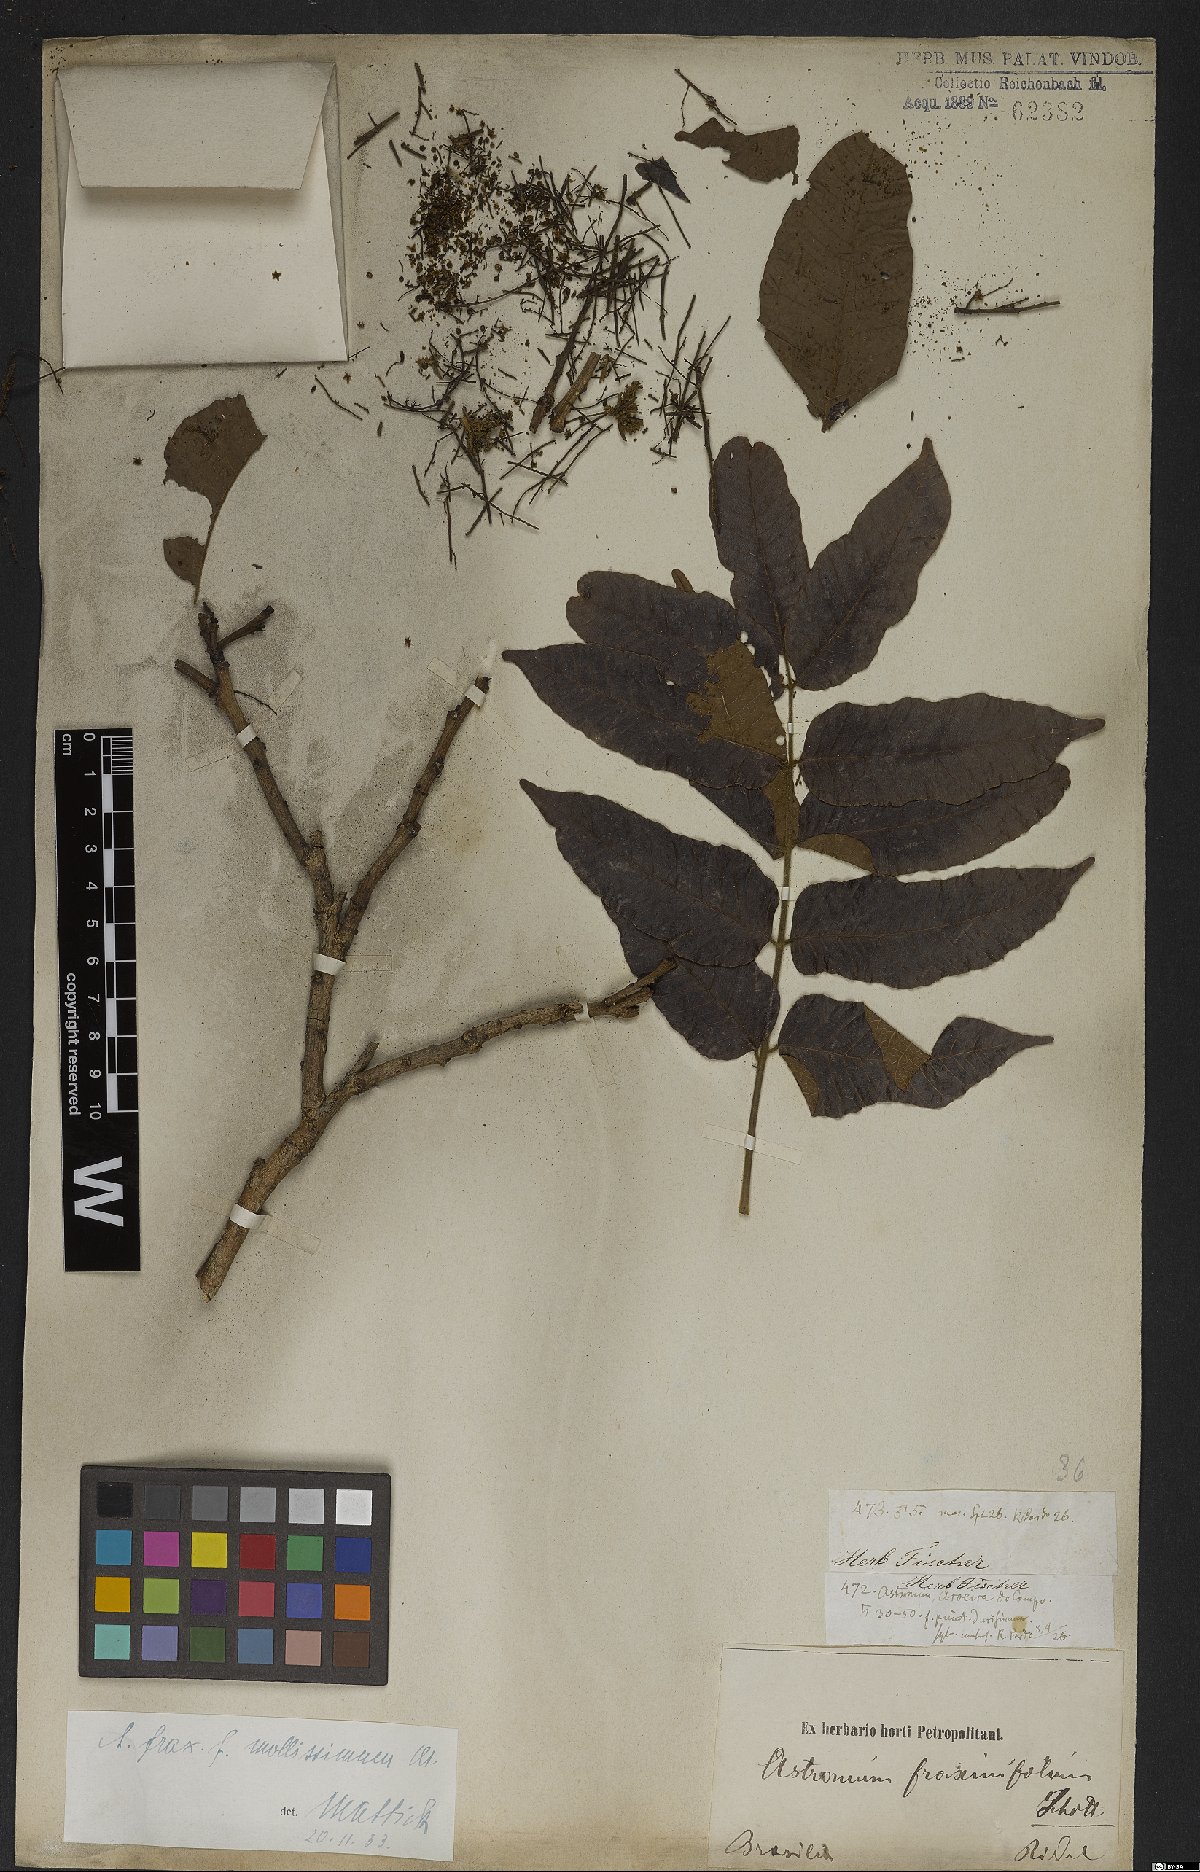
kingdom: Plantae
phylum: Tracheophyta
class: Magnoliopsida
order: Sapindales
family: Anacardiaceae
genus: Astronium
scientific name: Astronium fraxinifolium
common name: Tigerwood
